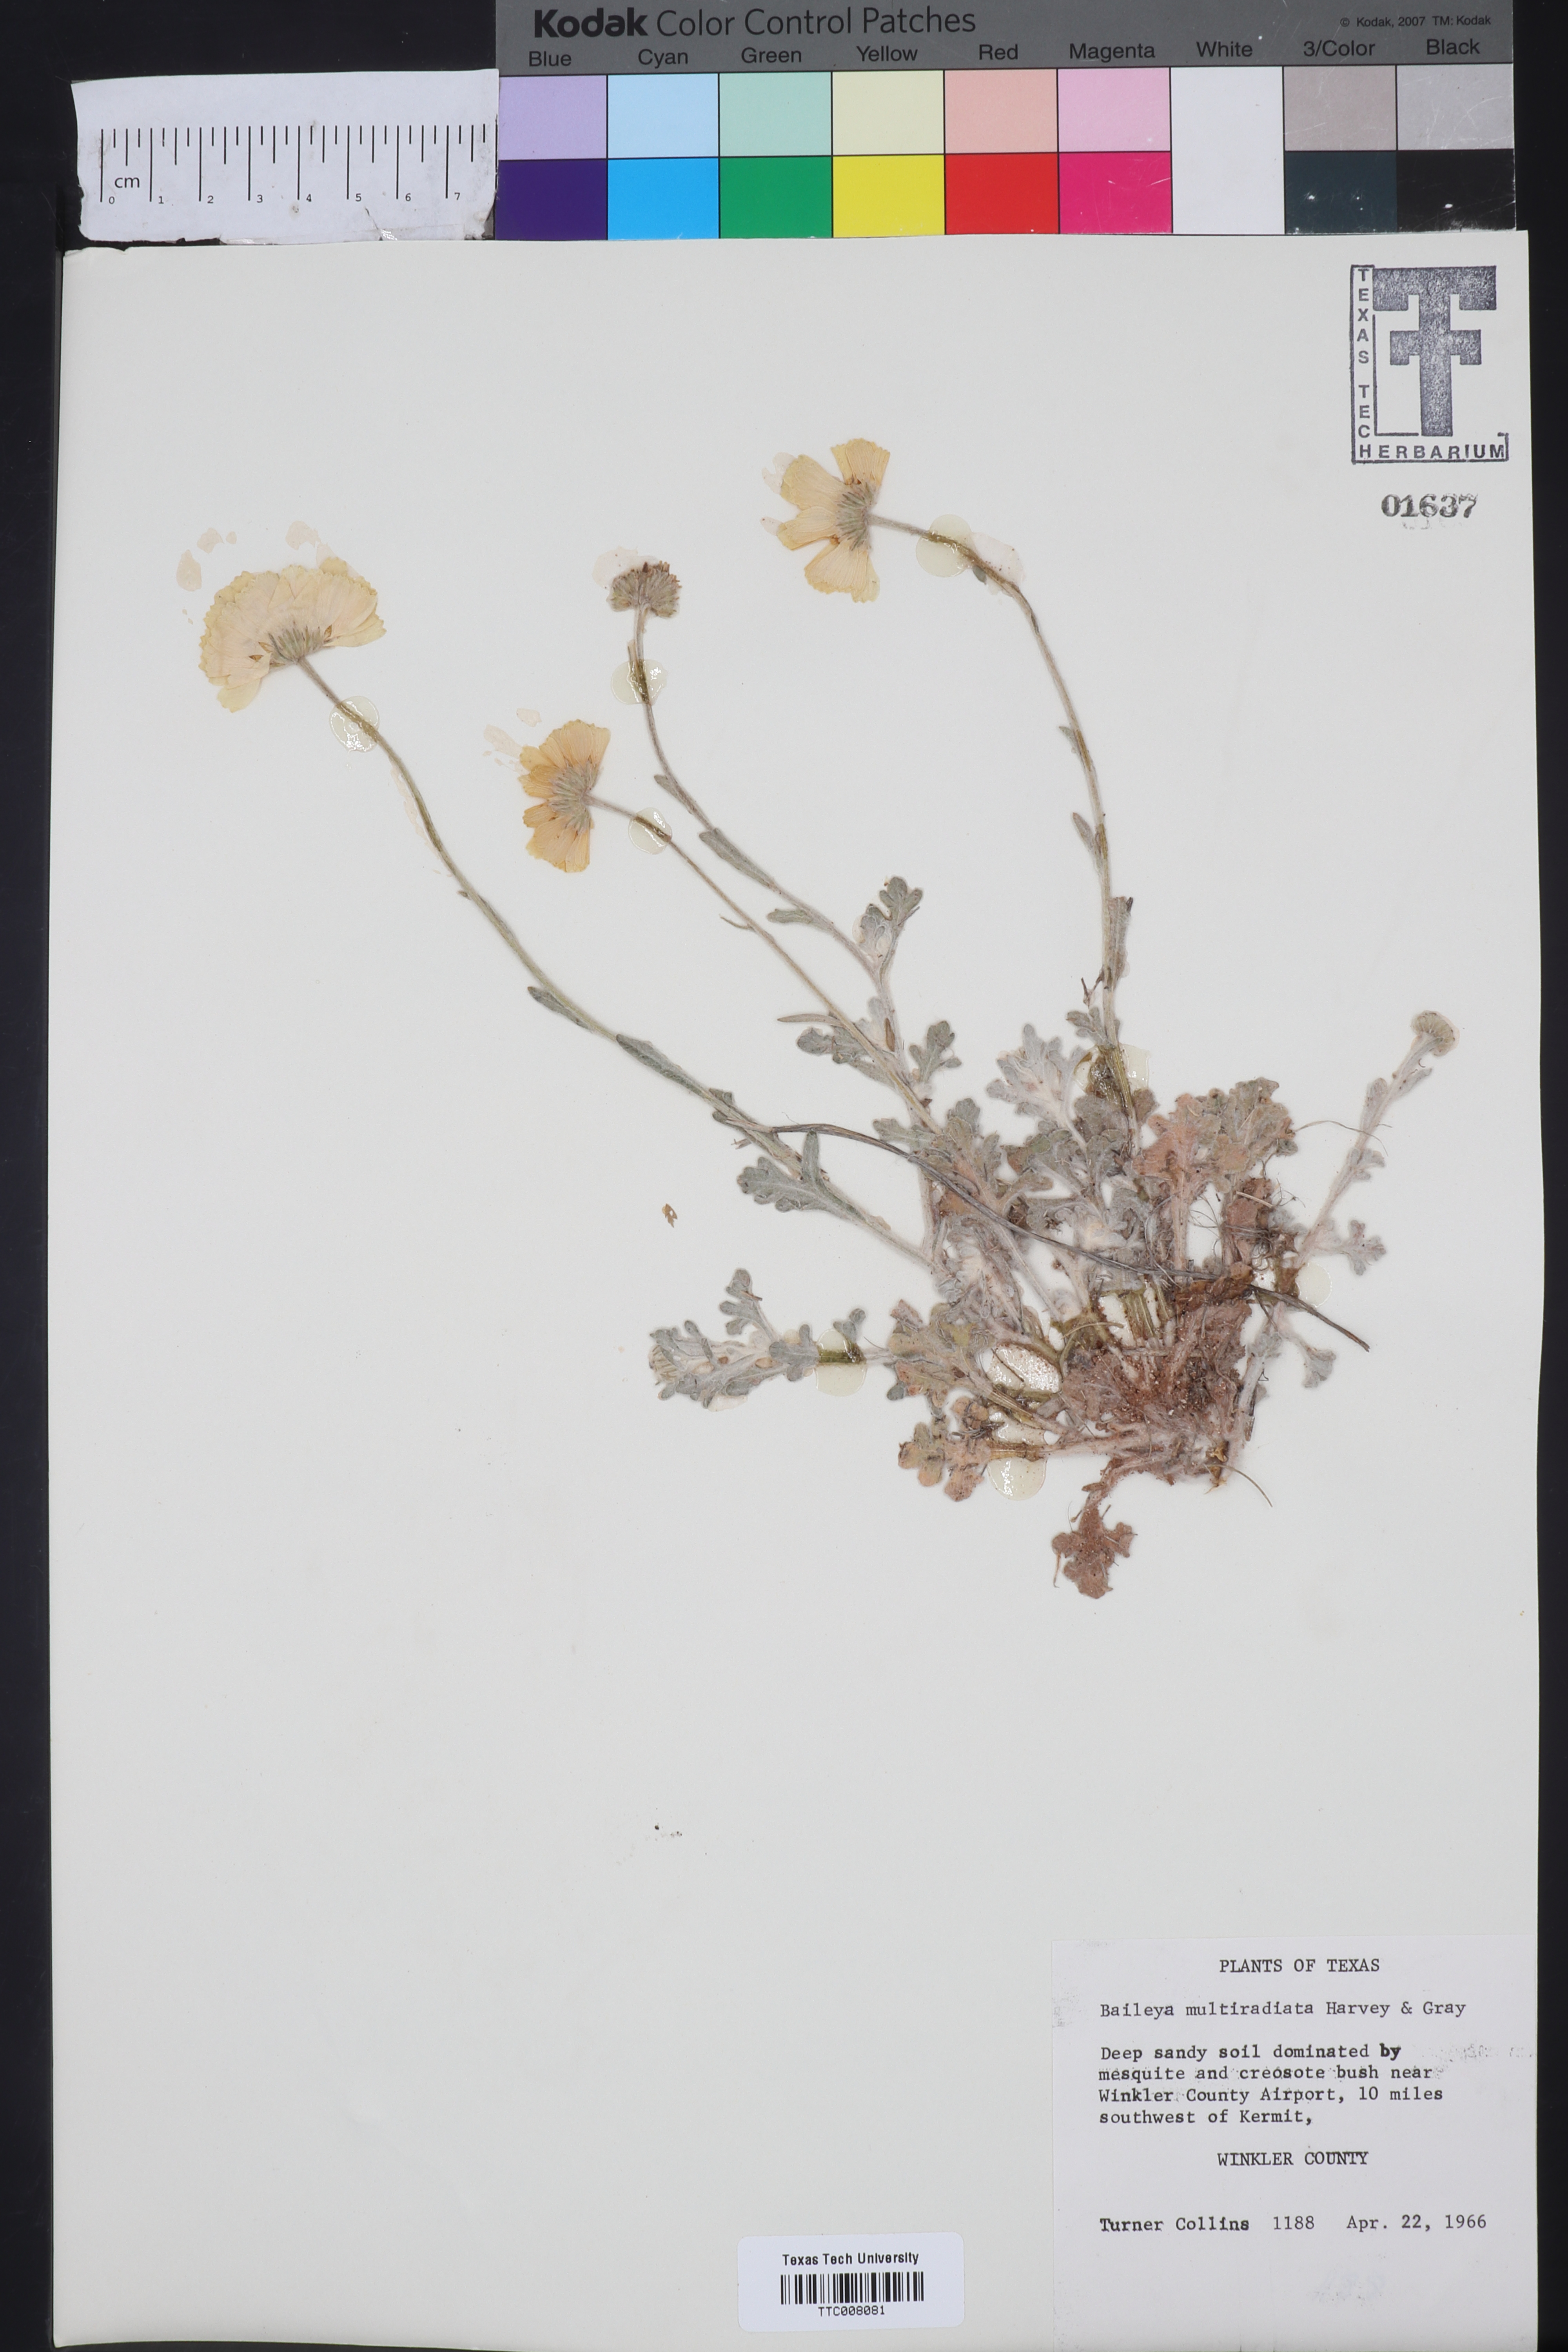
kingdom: Plantae
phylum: Tracheophyta
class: Magnoliopsida
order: Asterales
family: Asteraceae
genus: Baileya
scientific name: Baileya multiradiata
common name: Desert-marigold
